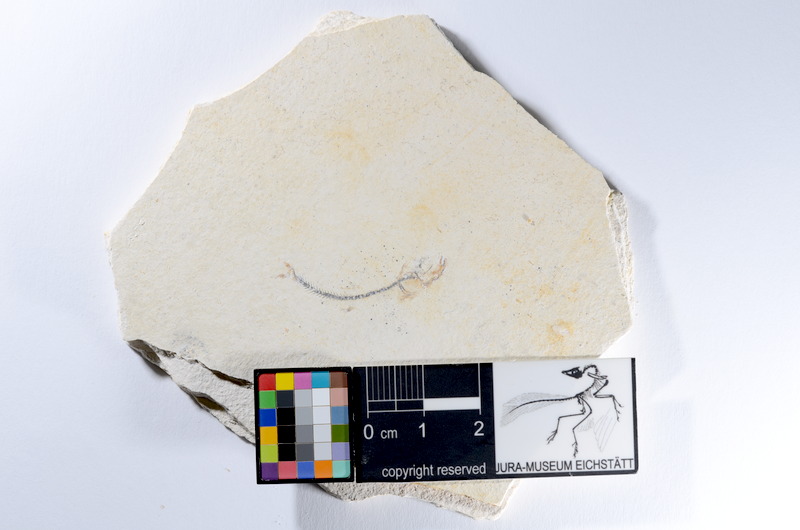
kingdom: Animalia
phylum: Chordata
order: Salmoniformes
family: Orthogonikleithridae
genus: Orthogonikleithrus
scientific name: Orthogonikleithrus hoelli
